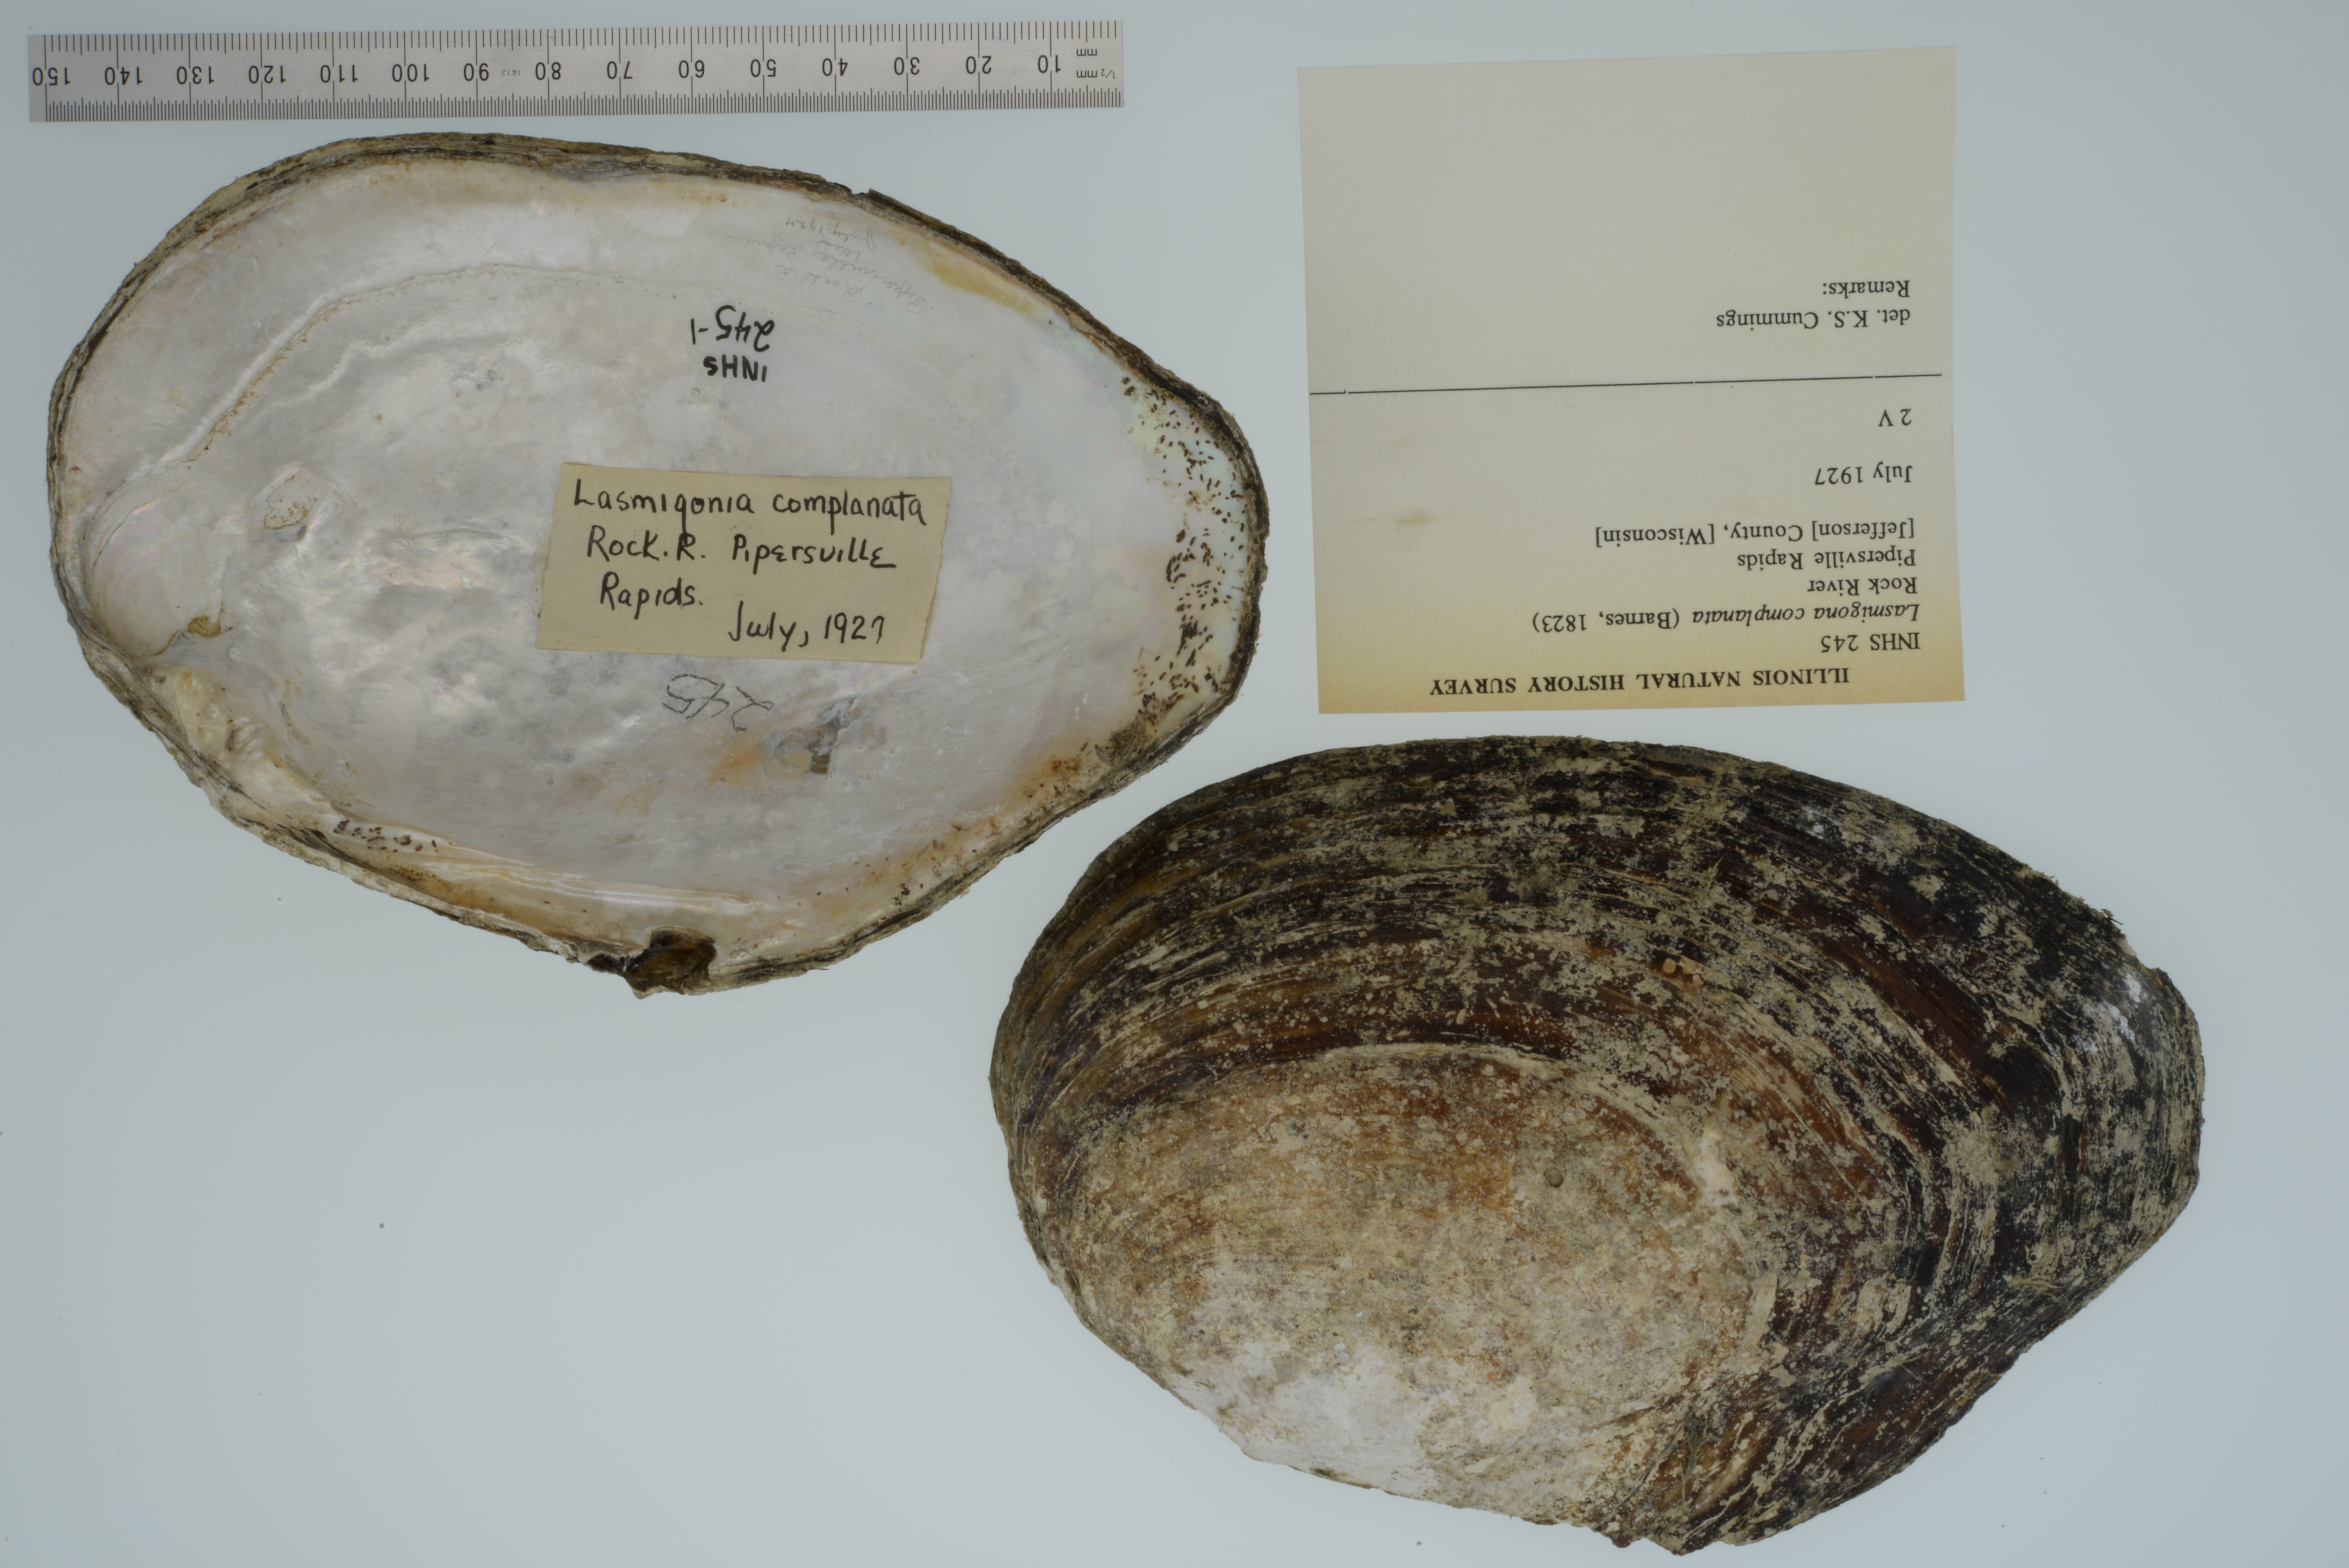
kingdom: Animalia
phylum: Mollusca
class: Bivalvia
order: Unionida
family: Unionidae
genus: Lasmigona
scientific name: Lasmigona complanata
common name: White heelsplitter
